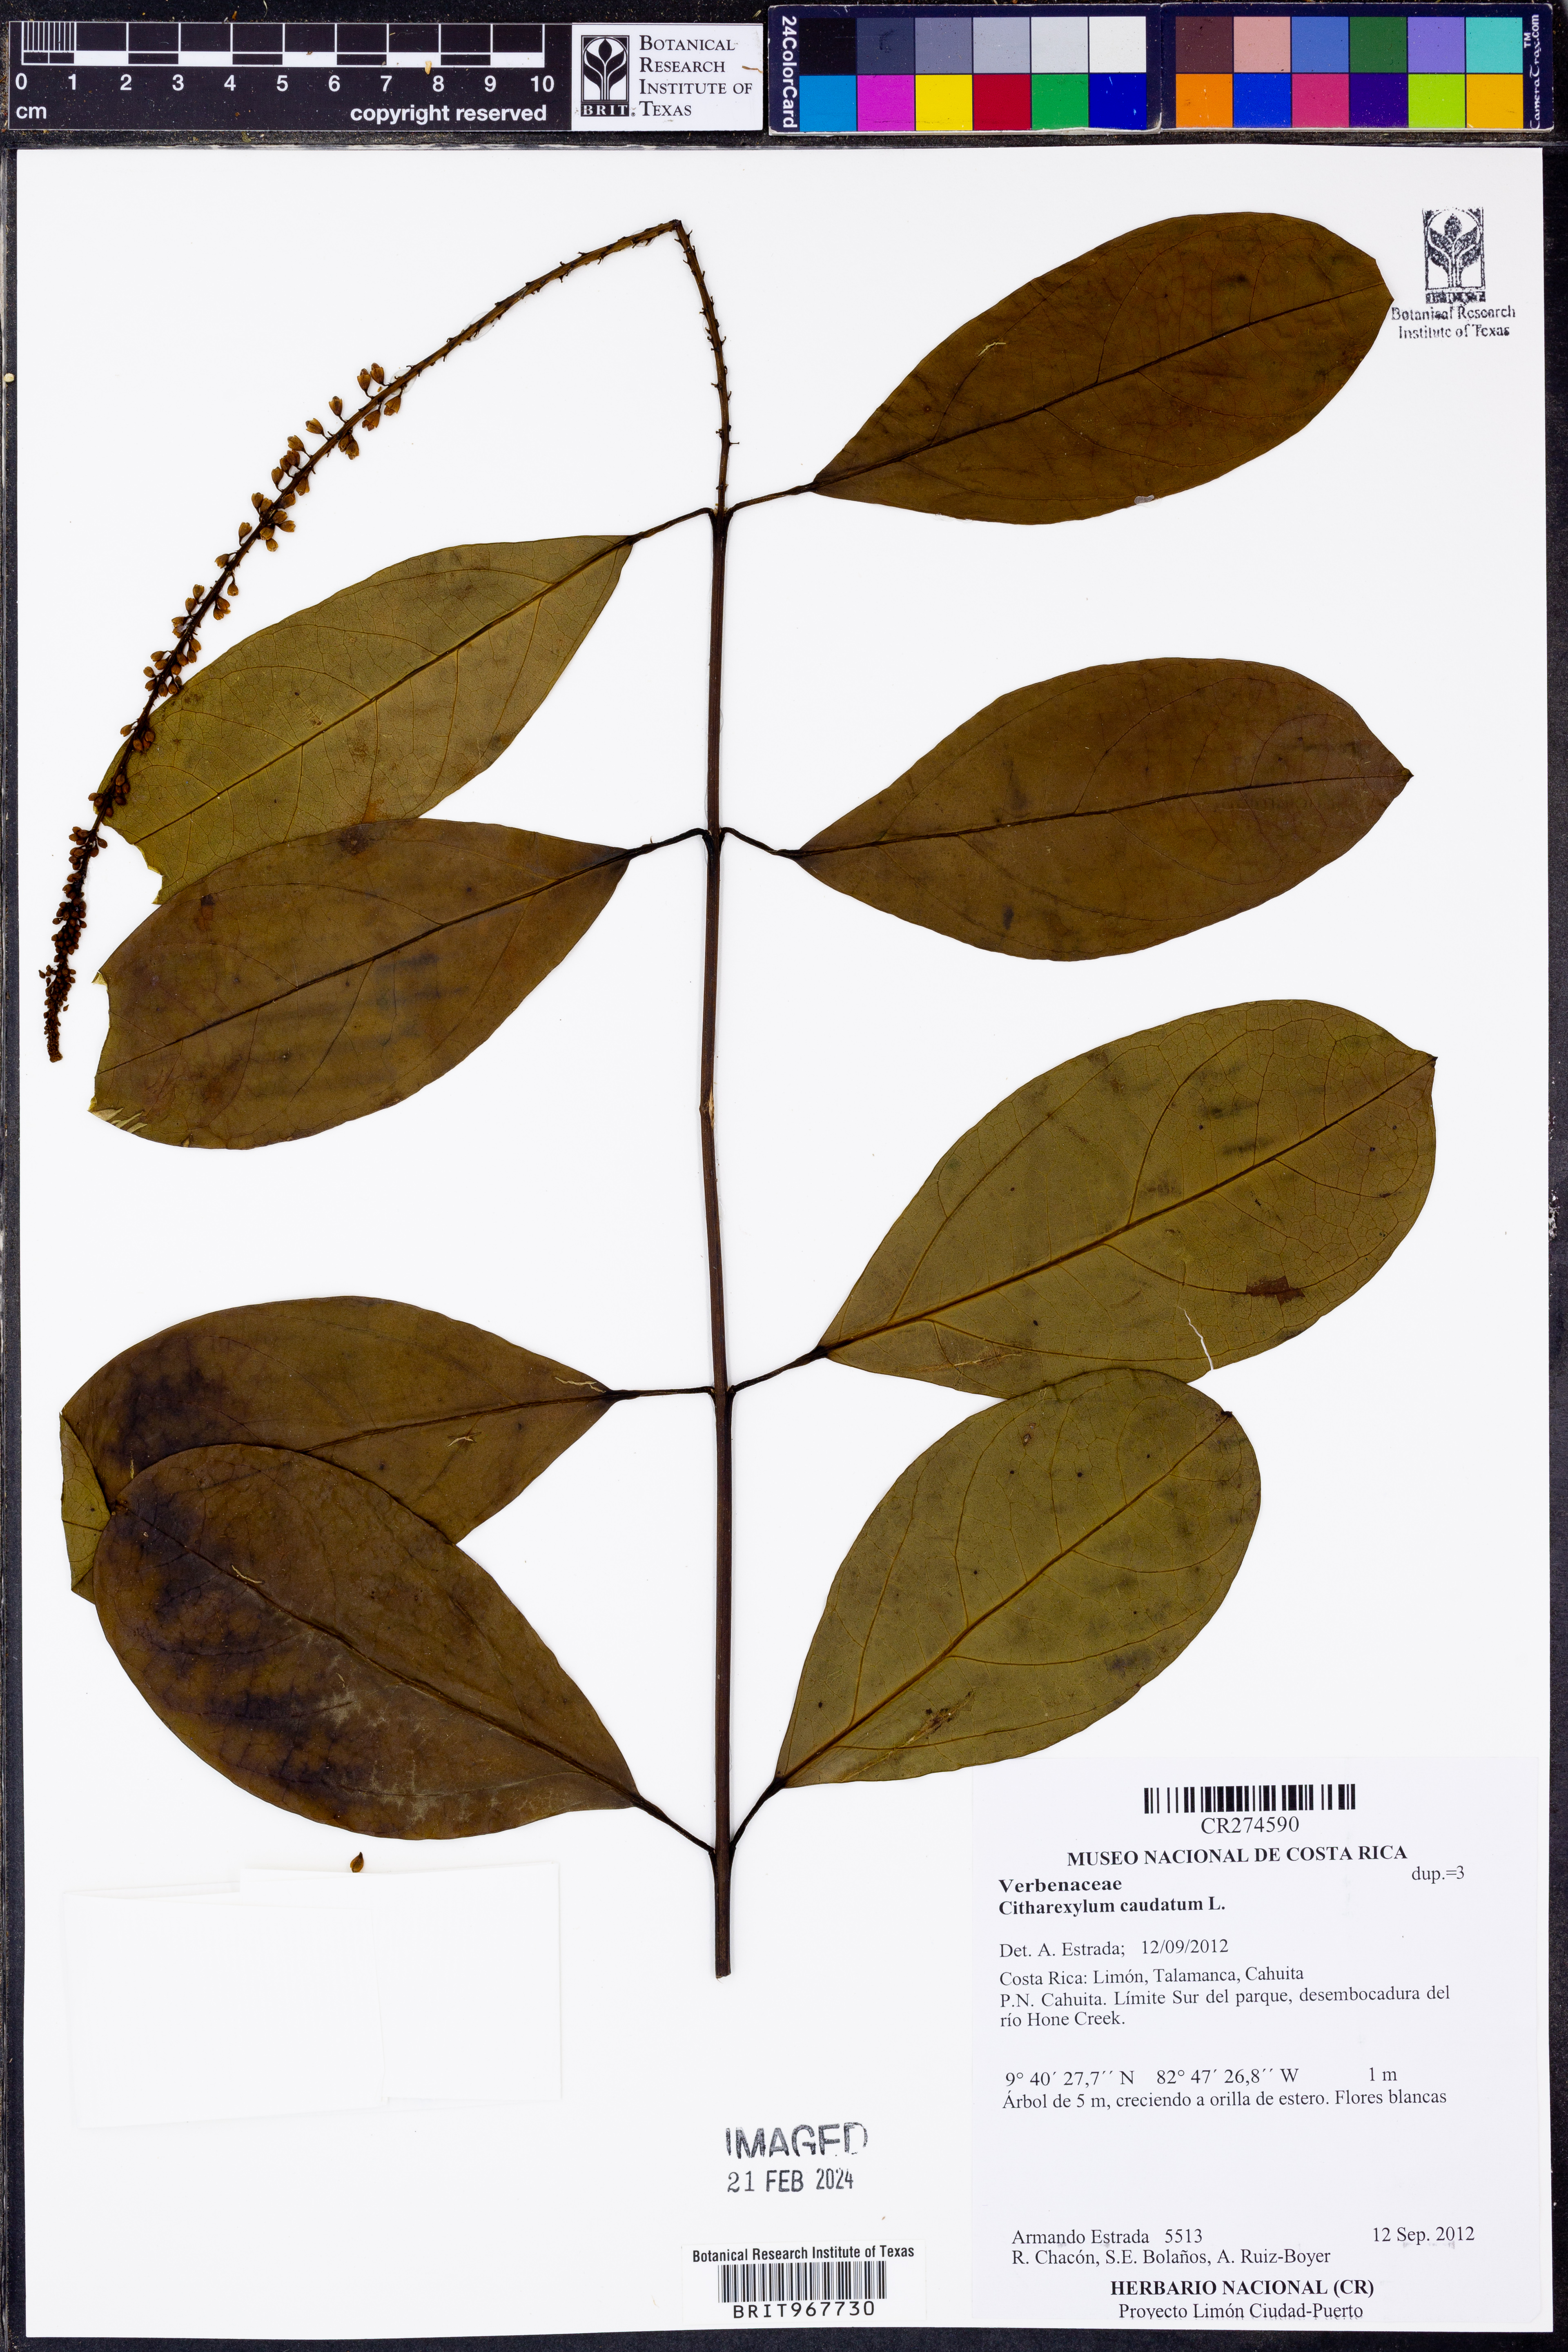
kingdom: Plantae
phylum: Tracheophyta
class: Magnoliopsida
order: Lamiales
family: Verbenaceae
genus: Citharexylum
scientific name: Citharexylum
